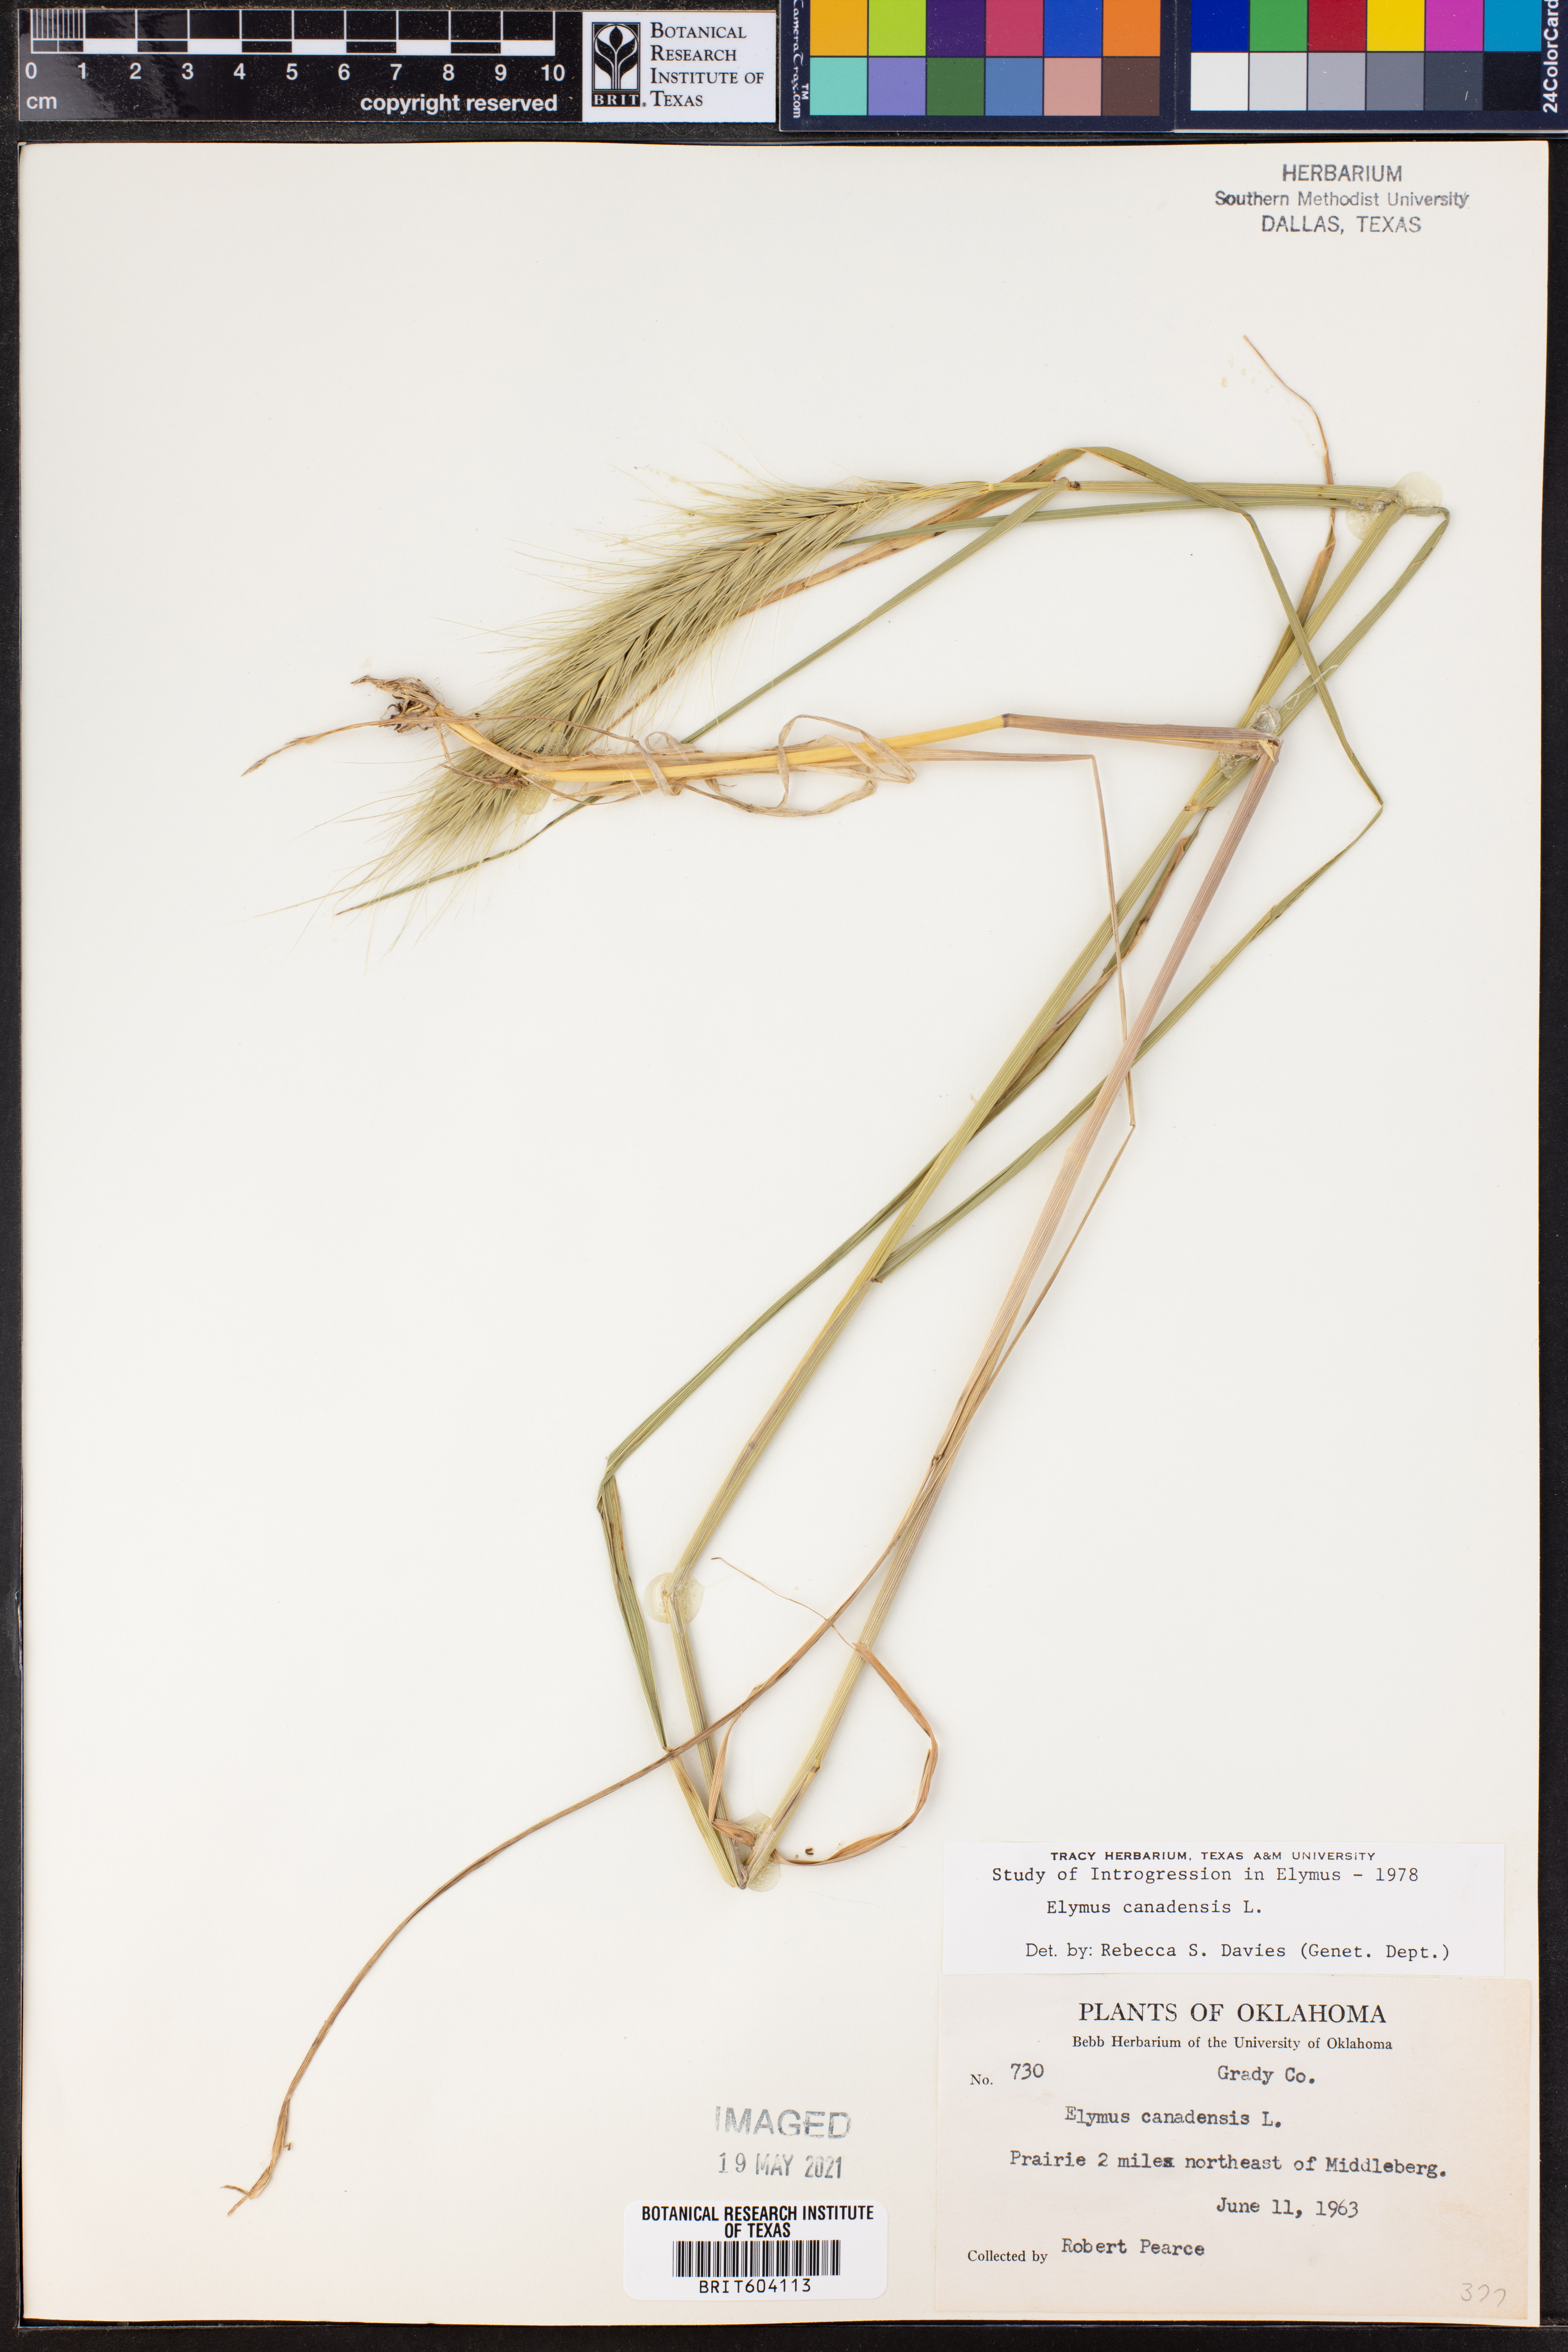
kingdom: Plantae
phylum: Tracheophyta
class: Liliopsida
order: Poales
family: Poaceae
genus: Elymus
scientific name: Elymus canadensis
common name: Canada wild rye
